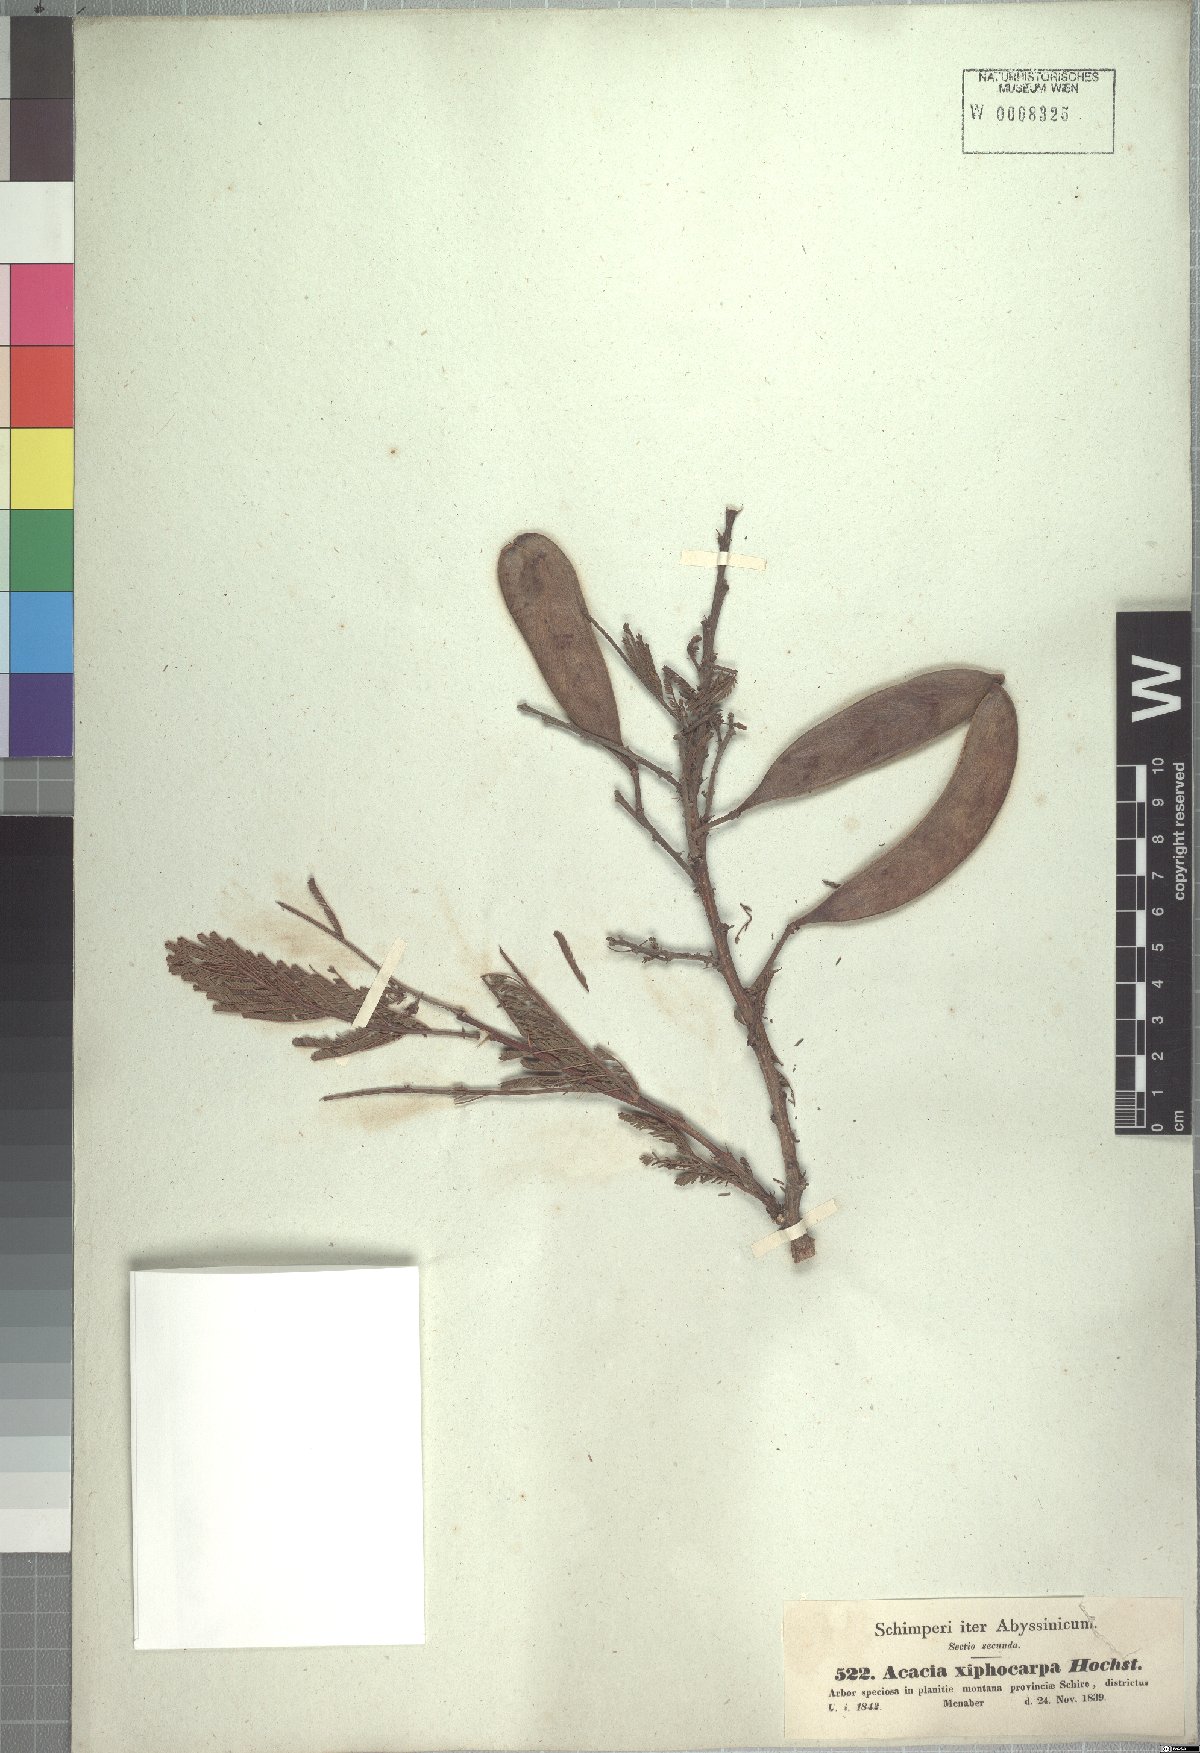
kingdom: Plantae
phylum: Tracheophyta
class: Magnoliopsida
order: Fabales
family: Fabaceae
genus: Vachellia
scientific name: Vachellia abyssinica
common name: Nyanga flat-top
